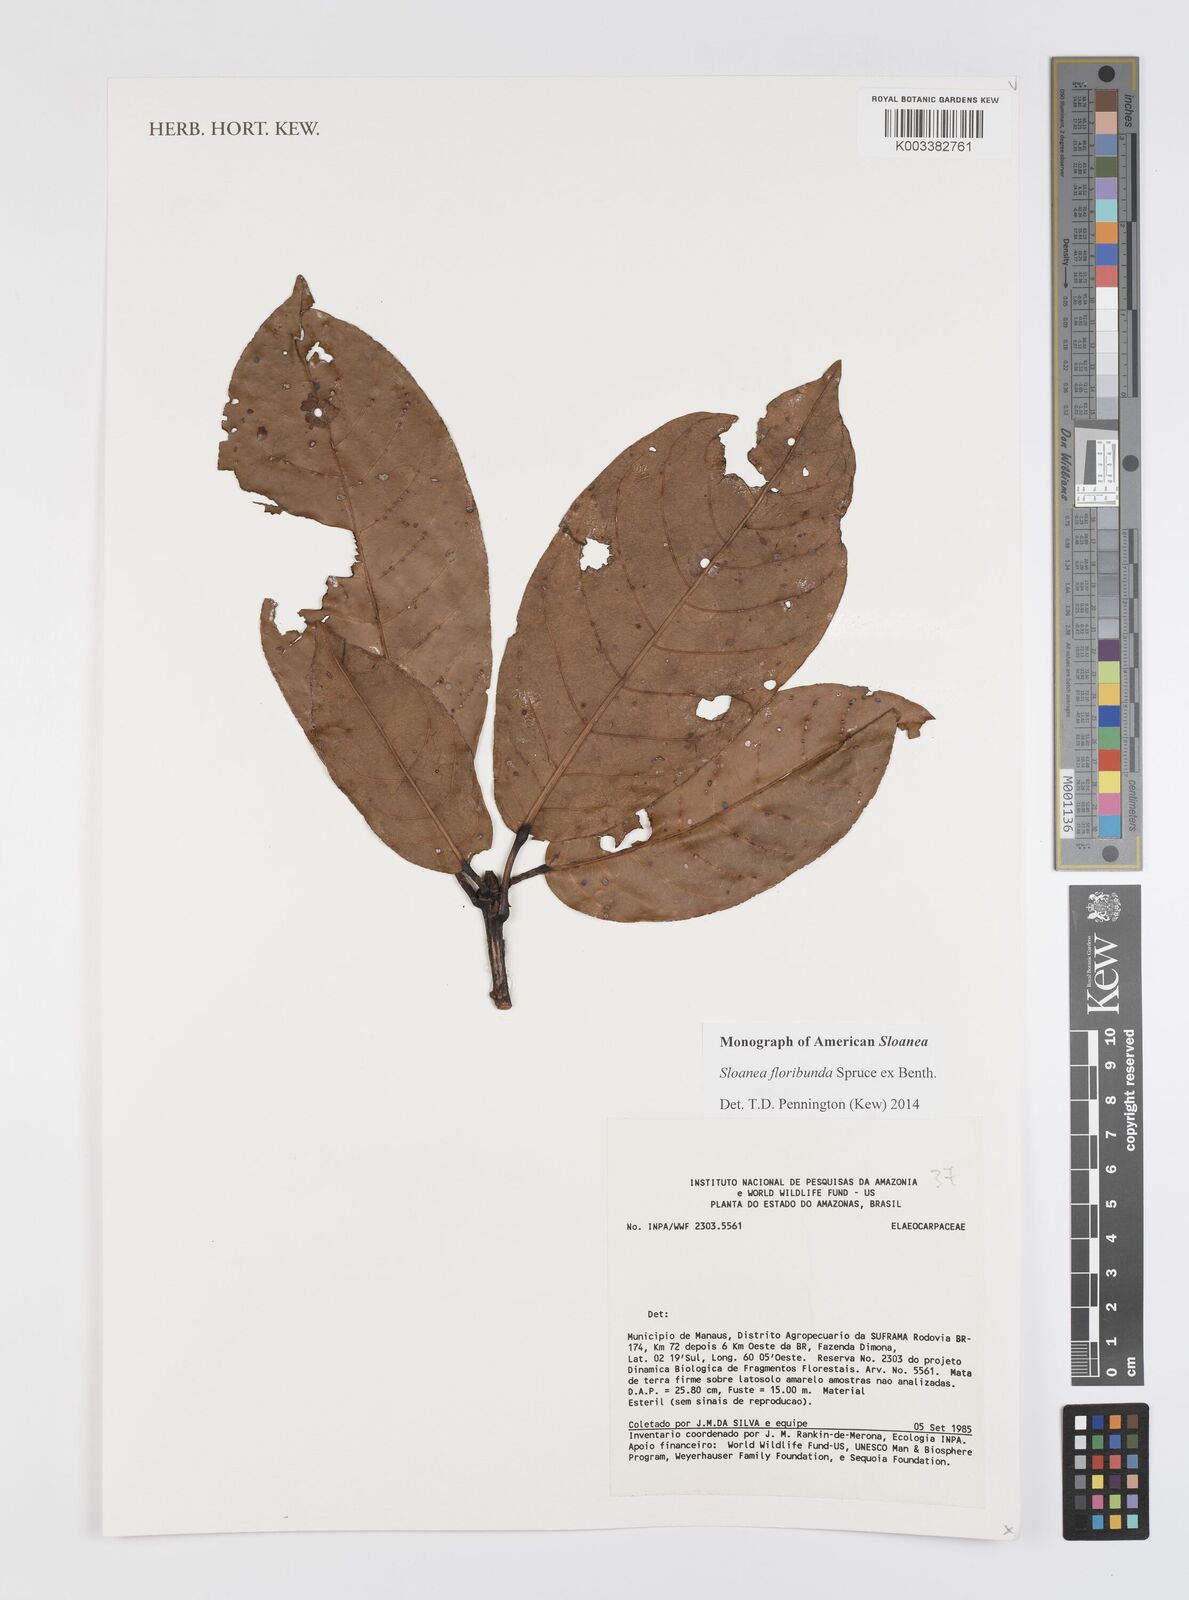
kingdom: Plantae
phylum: Tracheophyta
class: Magnoliopsida
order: Oxalidales
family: Elaeocarpaceae
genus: Sloanea
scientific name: Sloanea floribunda
